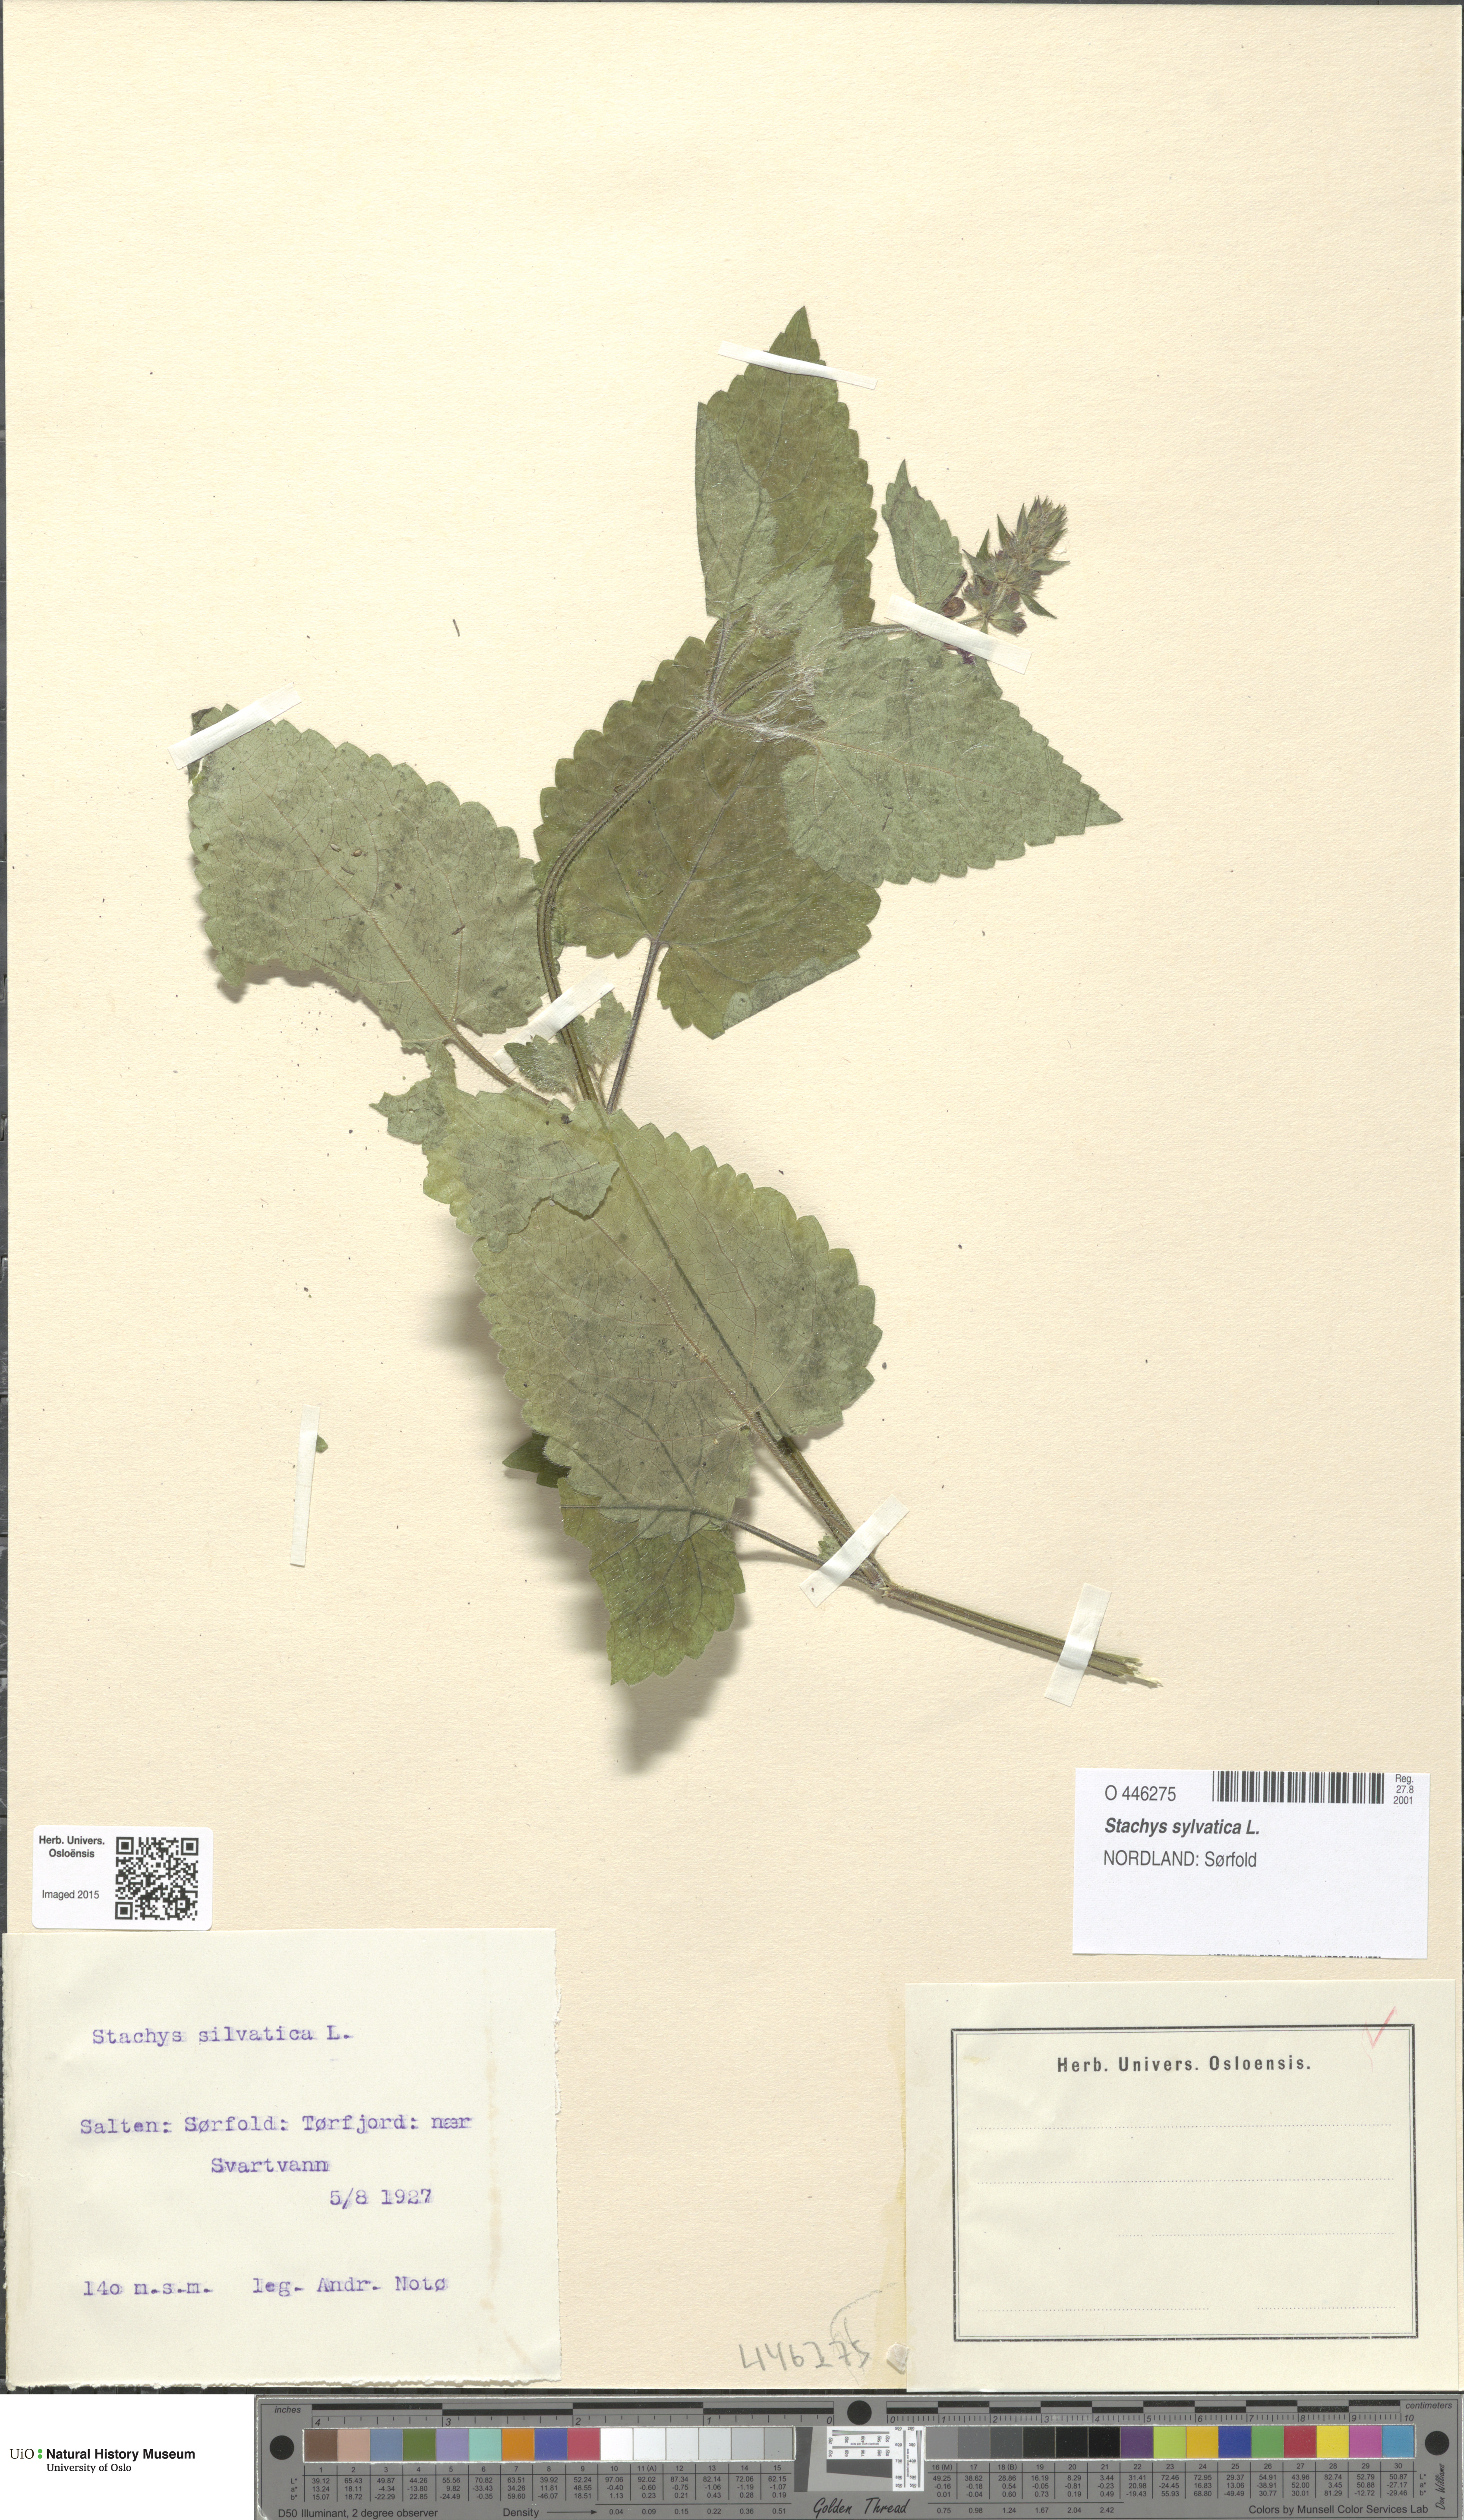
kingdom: Plantae
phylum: Tracheophyta
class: Magnoliopsida
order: Lamiales
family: Lamiaceae
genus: Stachys
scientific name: Stachys sylvatica
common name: Hedge woundwort
